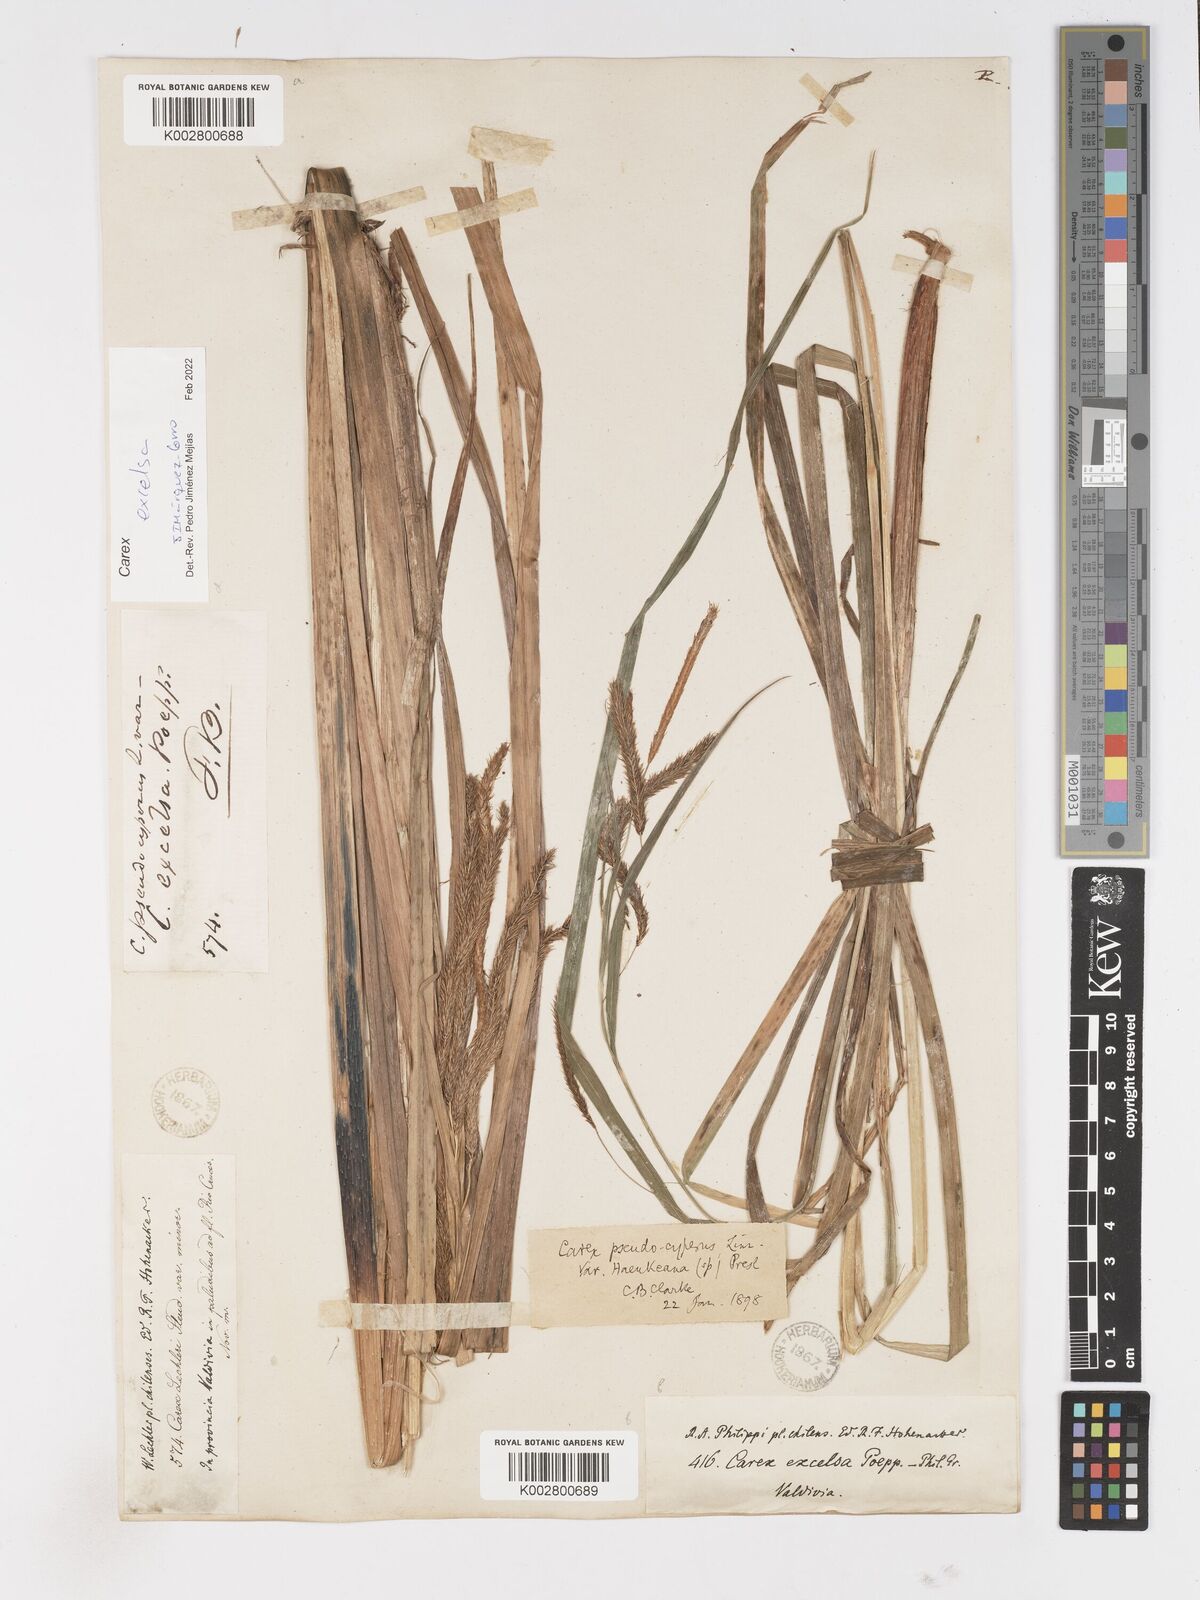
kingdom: Plantae
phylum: Tracheophyta
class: Liliopsida
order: Poales
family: Cyperaceae
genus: Carex
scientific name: Carex excelsa
